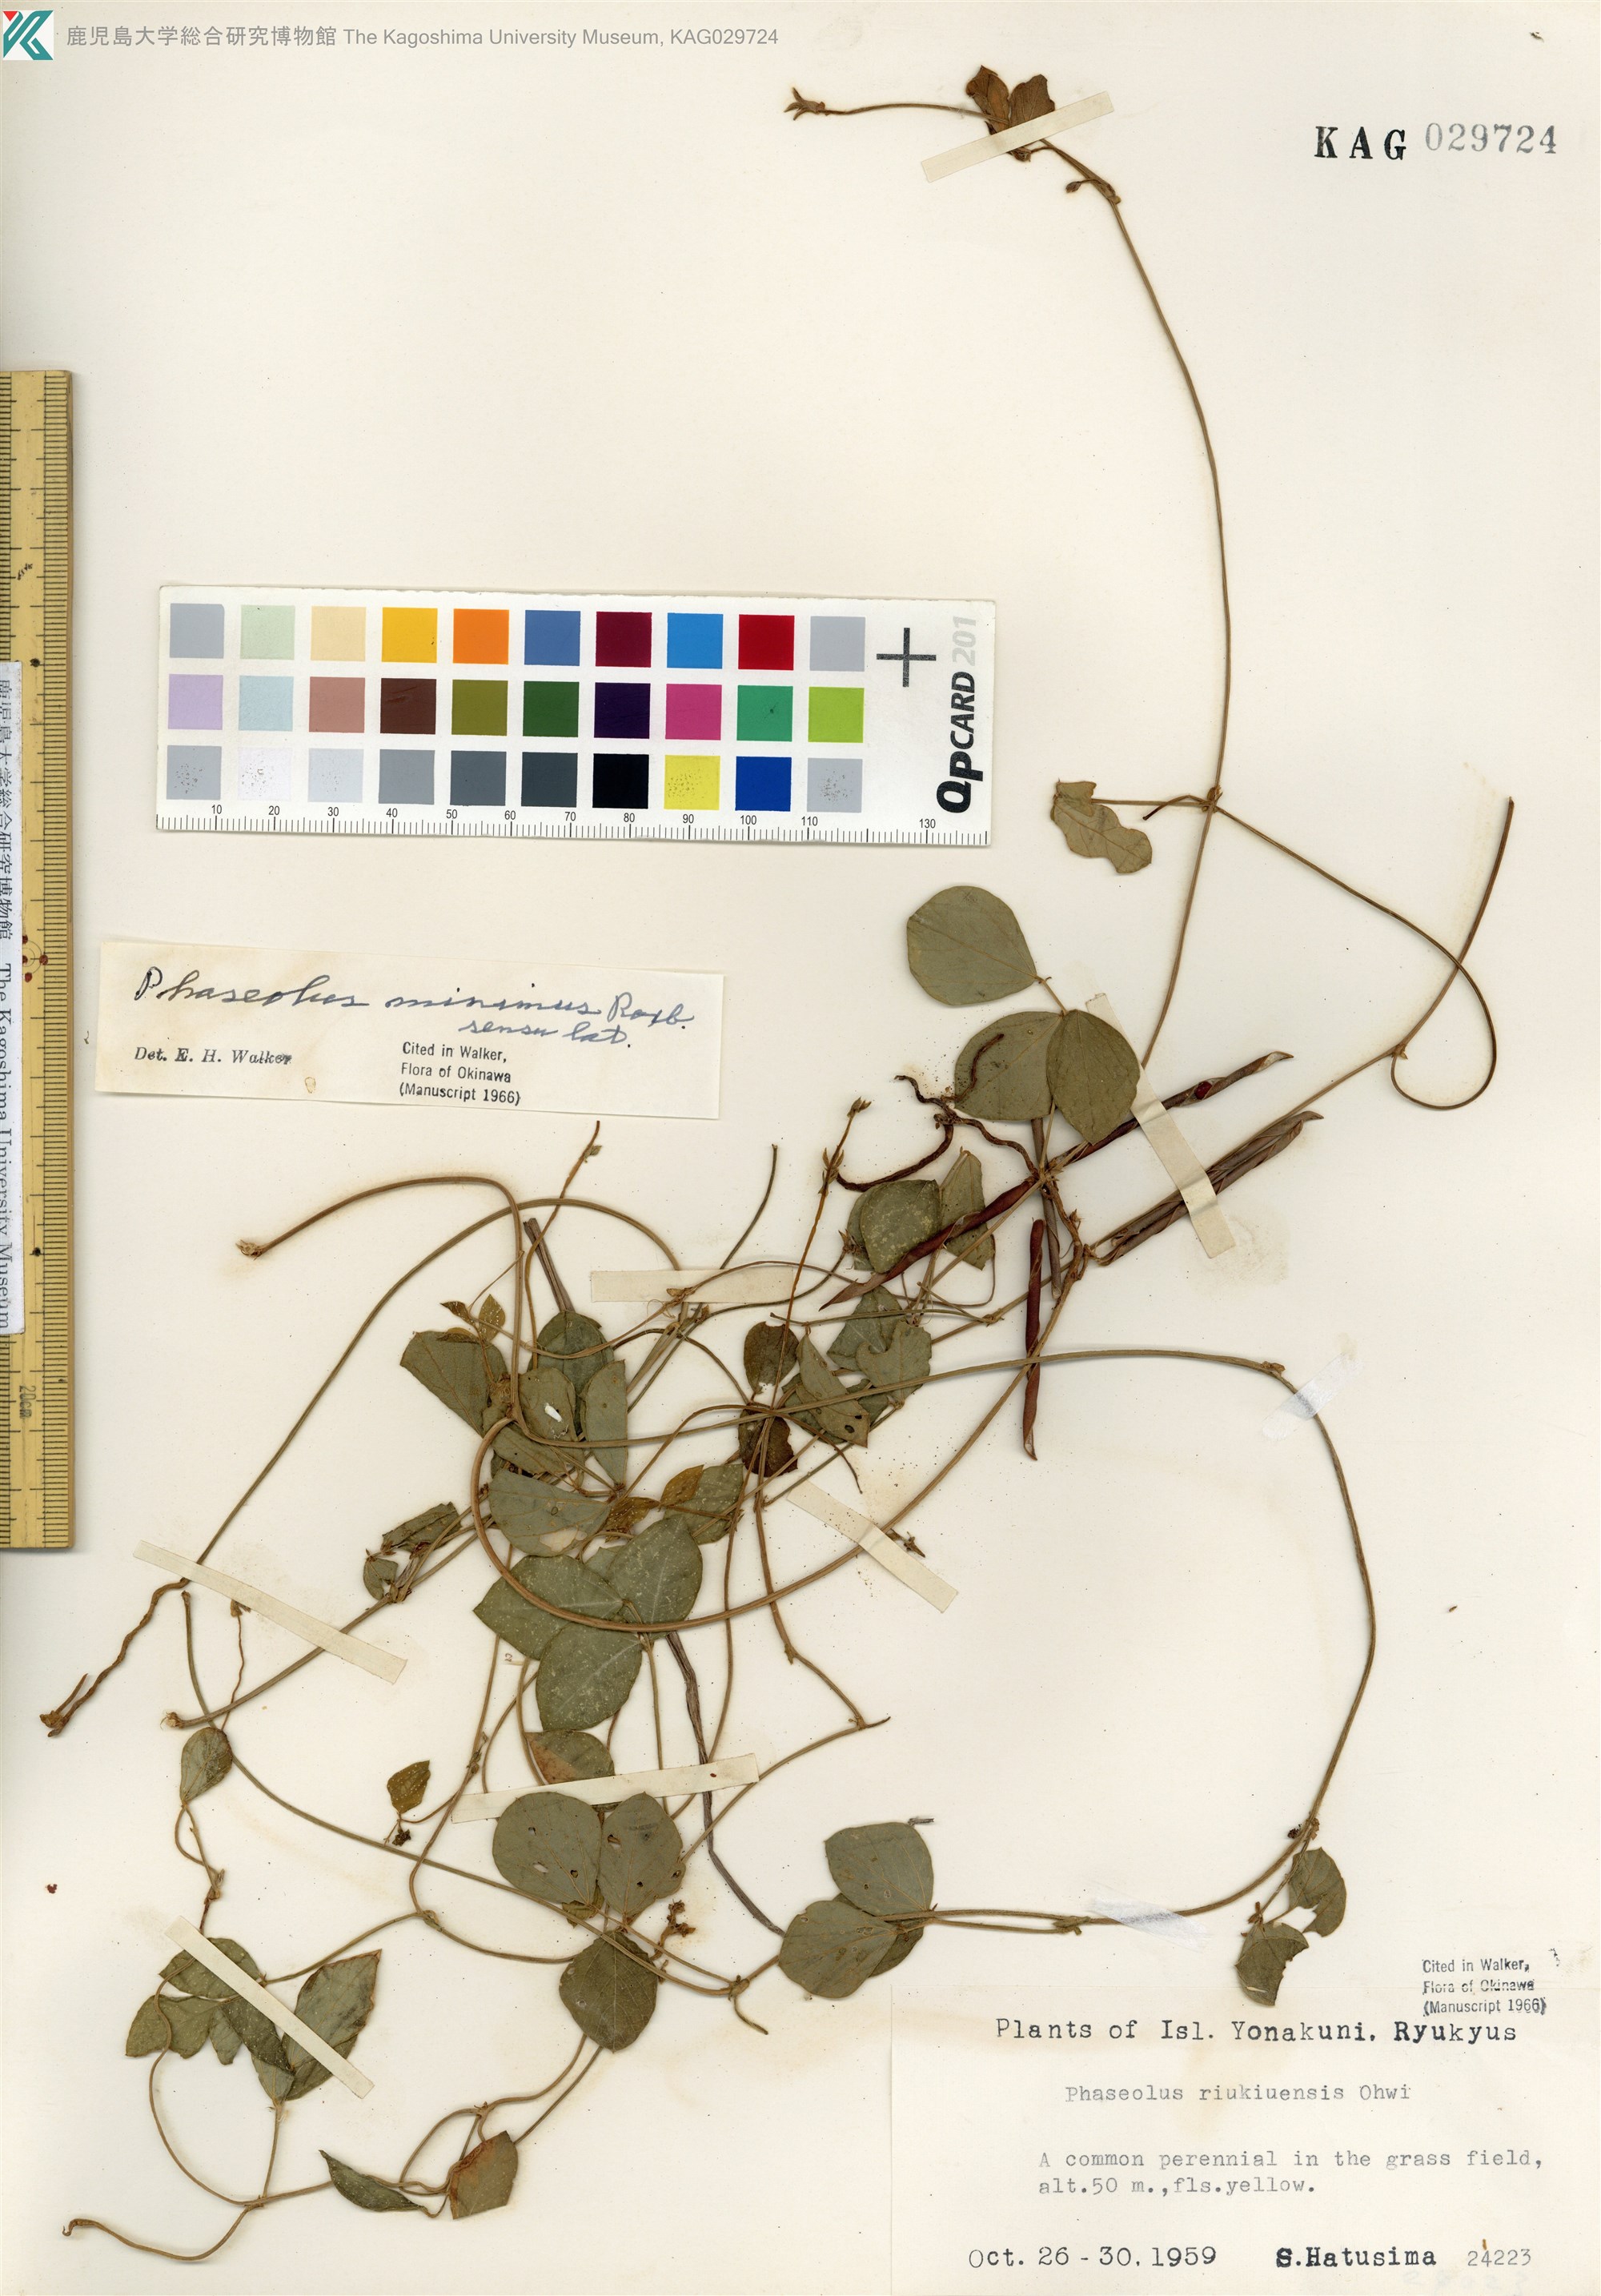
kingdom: Plantae
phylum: Tracheophyta
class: Magnoliopsida
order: Fabales
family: Fabaceae
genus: Vigna
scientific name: Vigna minima
